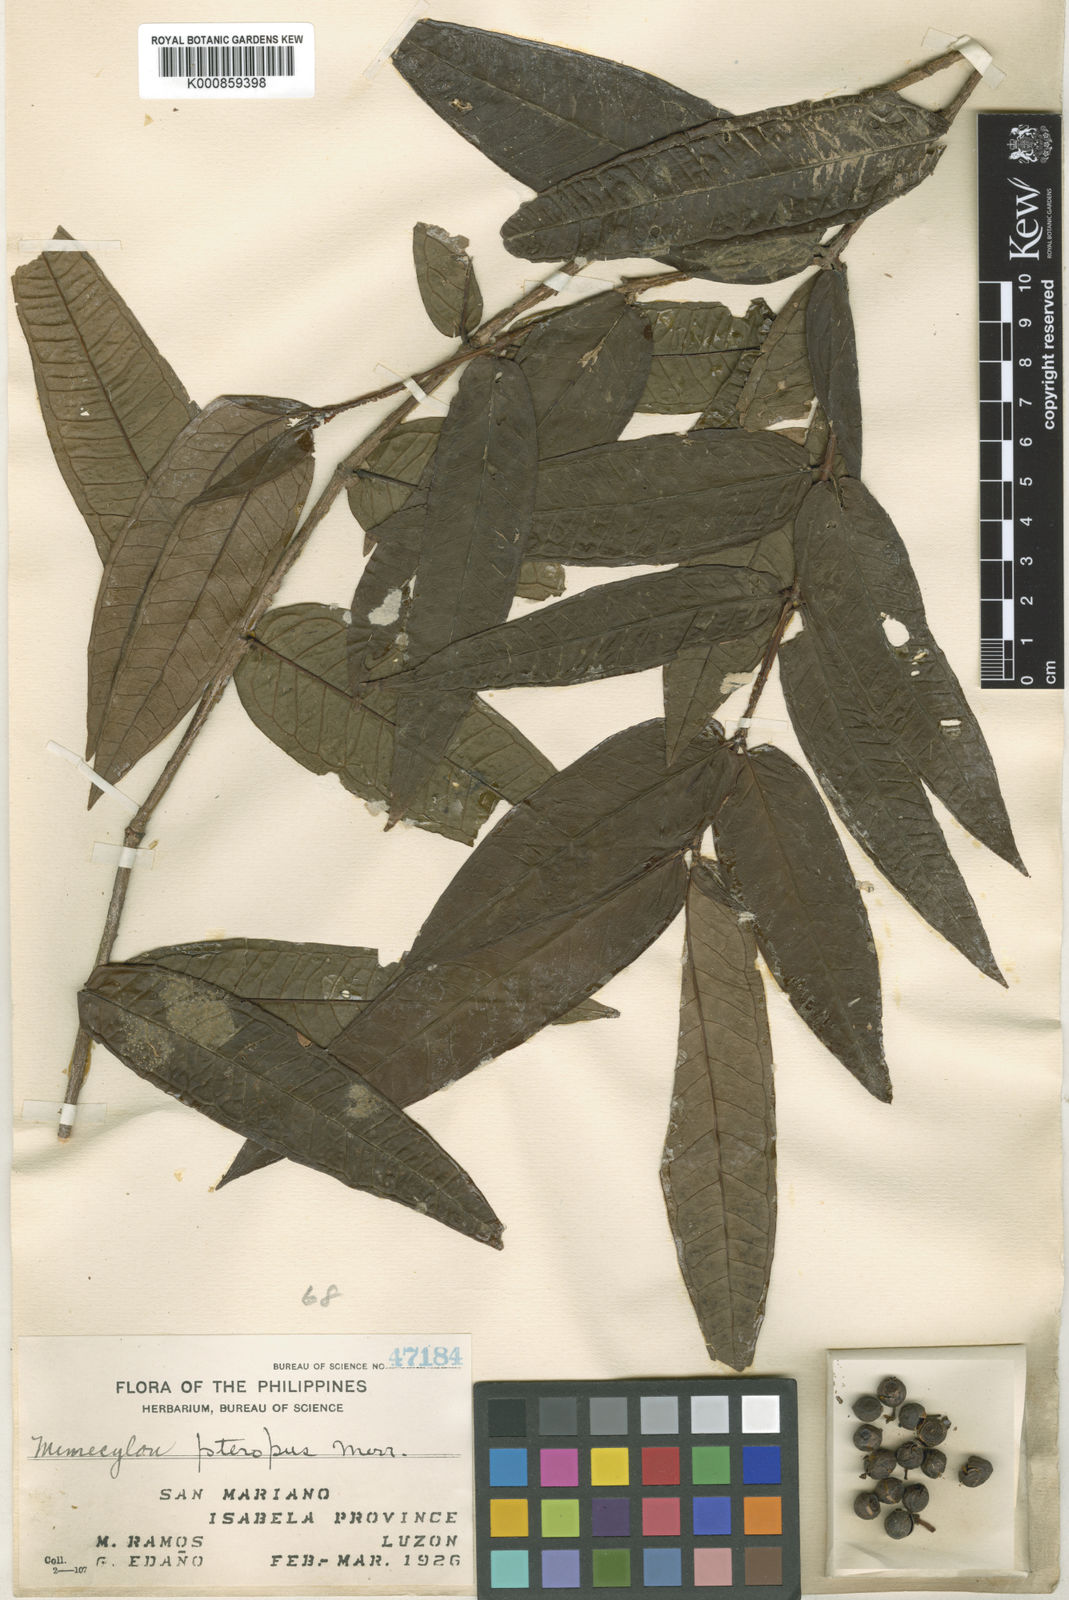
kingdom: Plantae
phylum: Tracheophyta
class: Magnoliopsida
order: Myrtales
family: Melastomataceae
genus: Memecylon
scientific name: Memecylon pteropus
